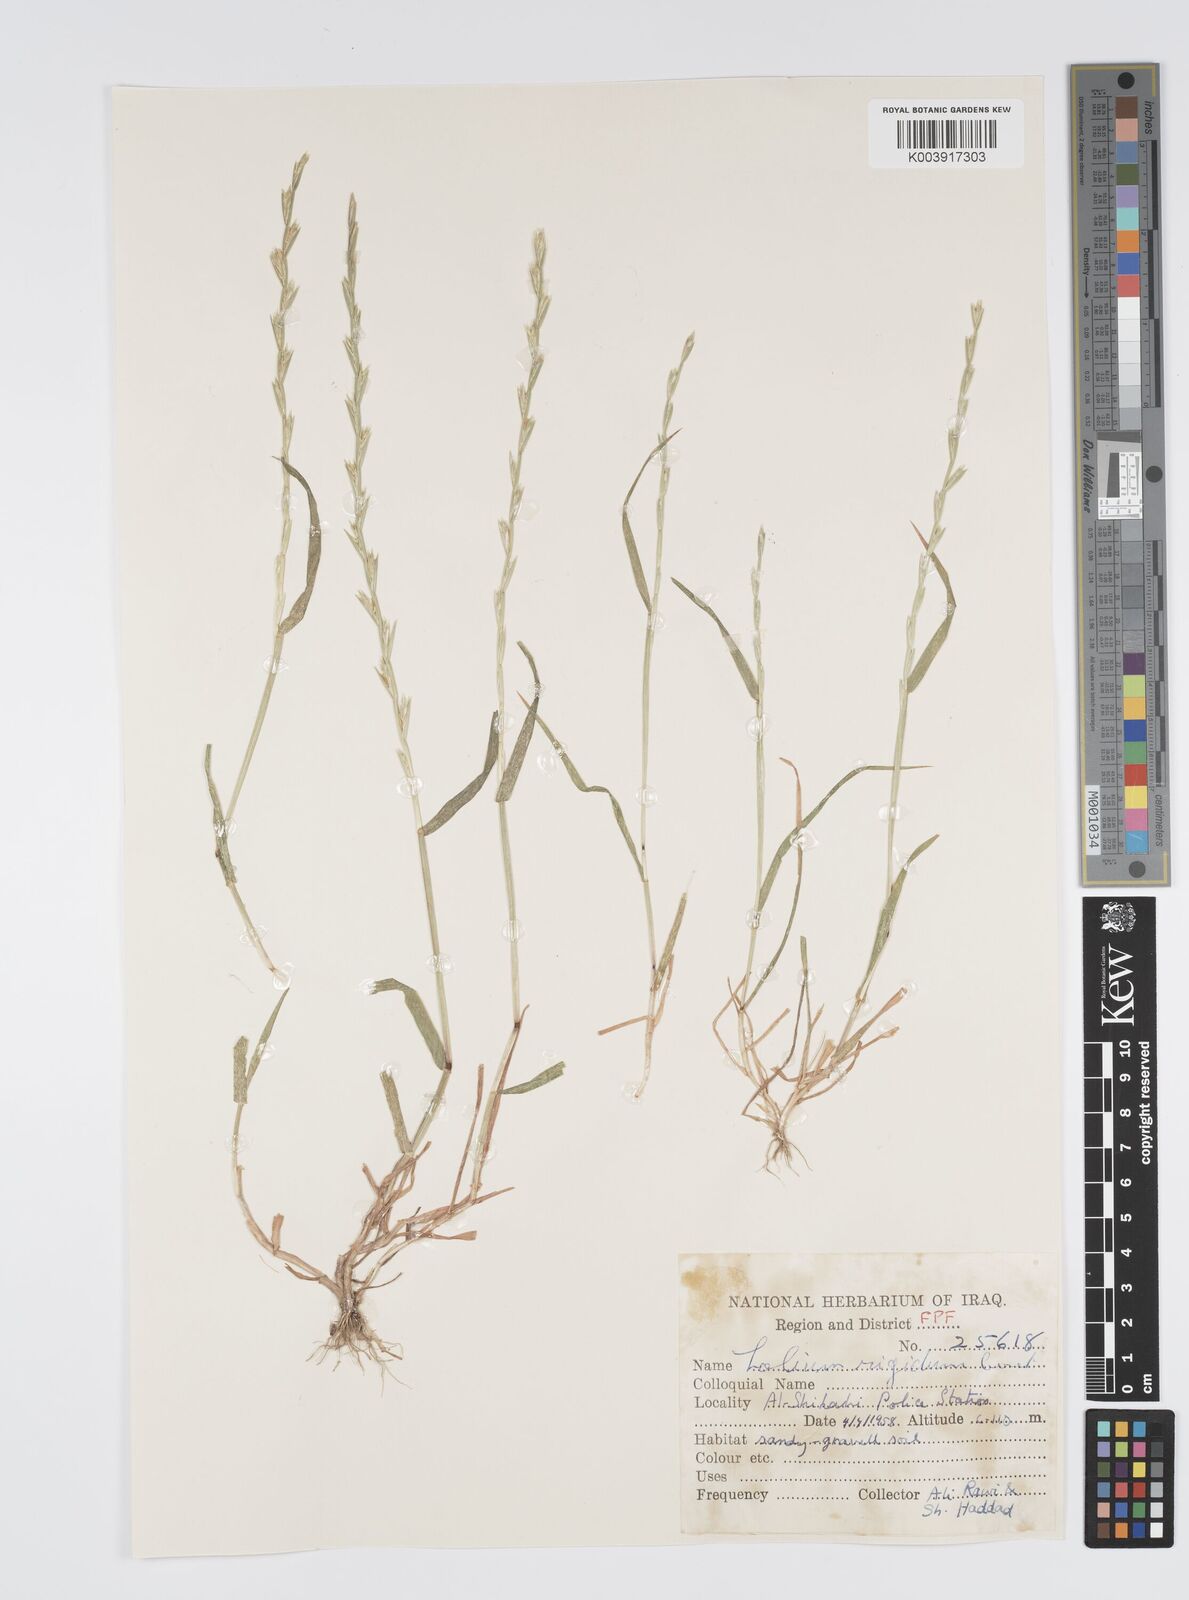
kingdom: Plantae
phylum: Tracheophyta
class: Liliopsida
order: Poales
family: Poaceae
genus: Lolium
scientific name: Lolium rigidum
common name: Wimmera ryegrass
